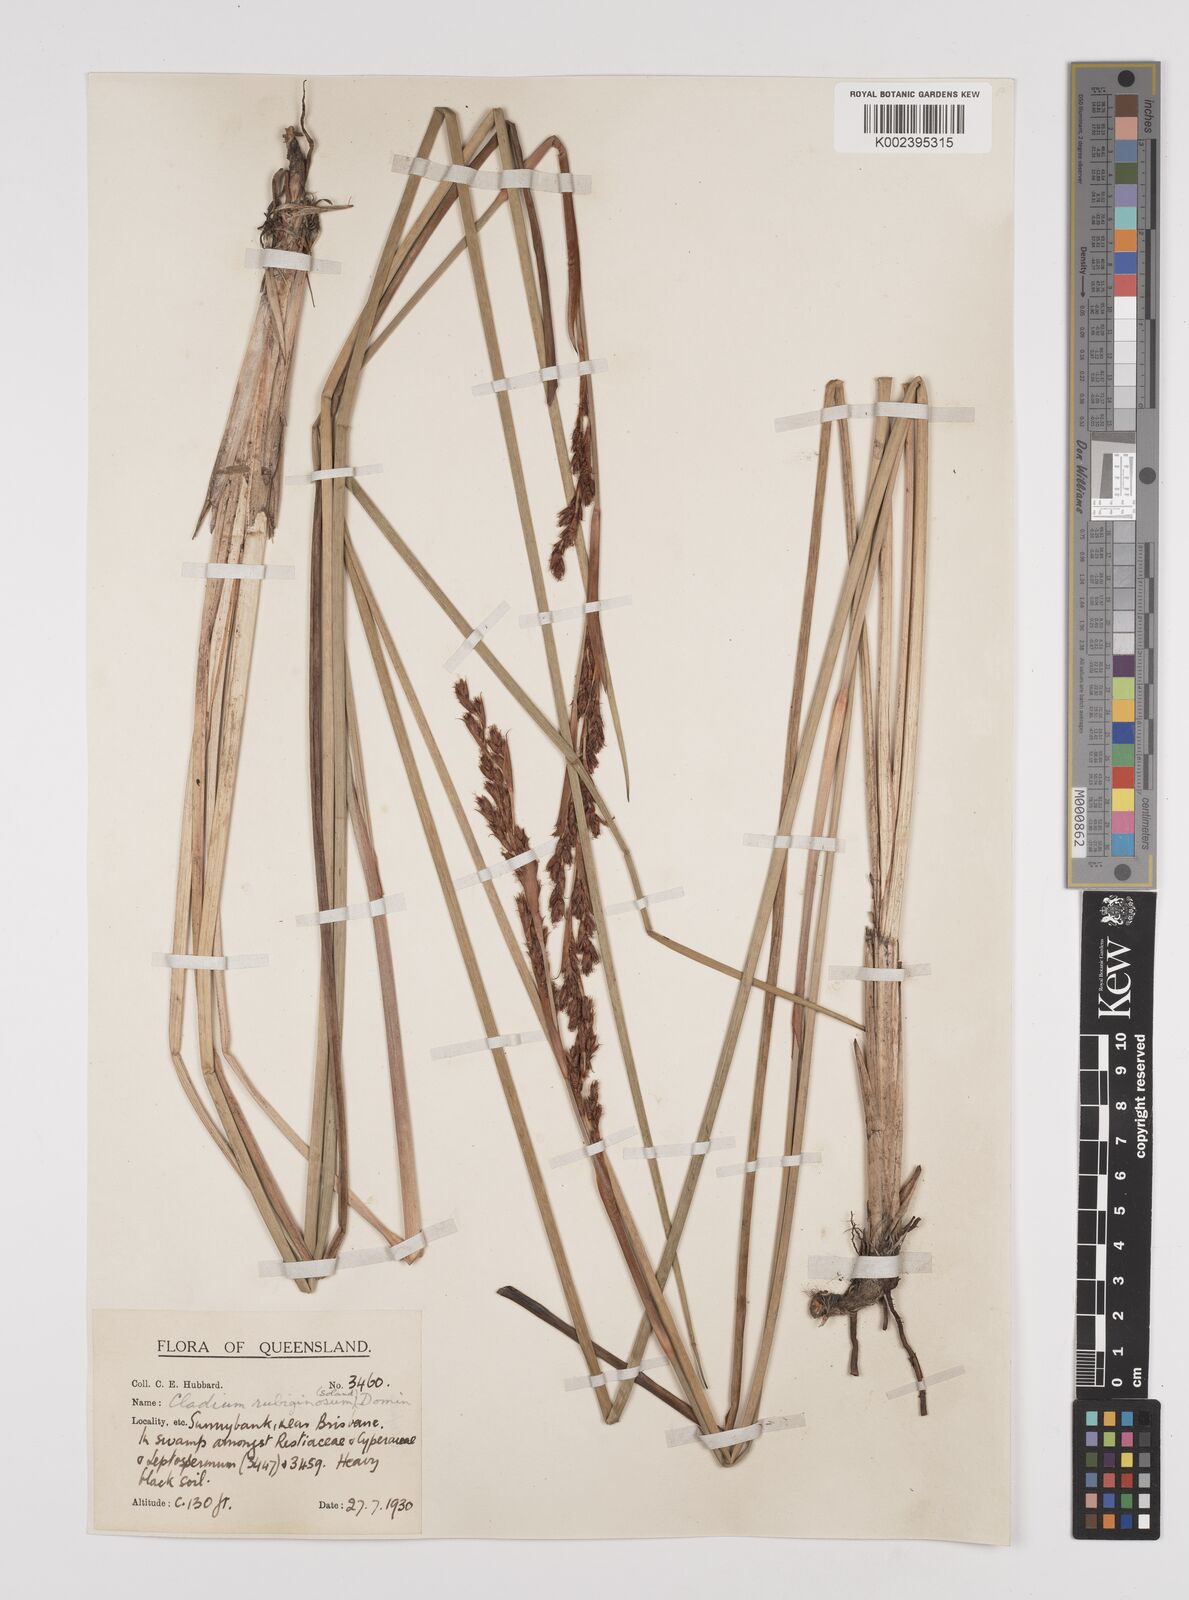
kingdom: Plantae
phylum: Tracheophyta
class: Liliopsida
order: Poales
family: Cyperaceae
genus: Machaerina
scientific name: Machaerina rubiginosa
